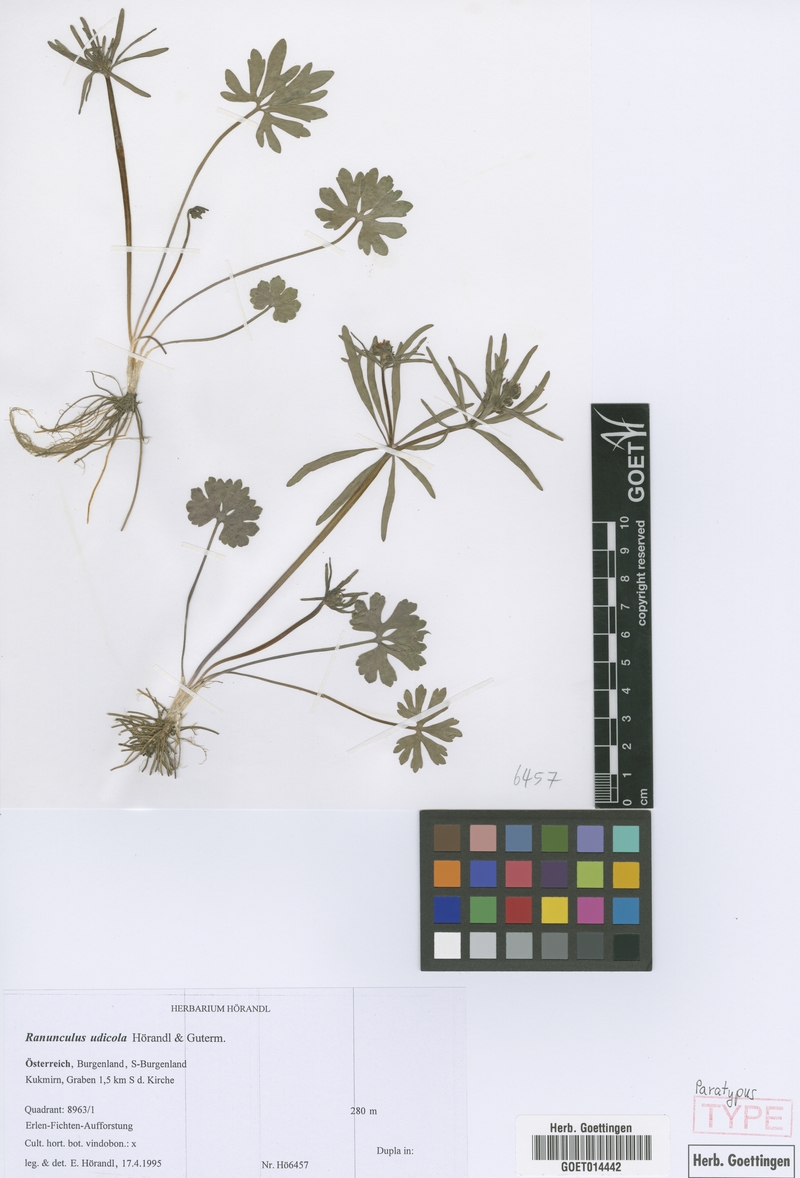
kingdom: Plantae
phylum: Tracheophyta
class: Magnoliopsida
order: Ranunculales
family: Ranunculaceae
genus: Ranunculus
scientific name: Ranunculus udicola
